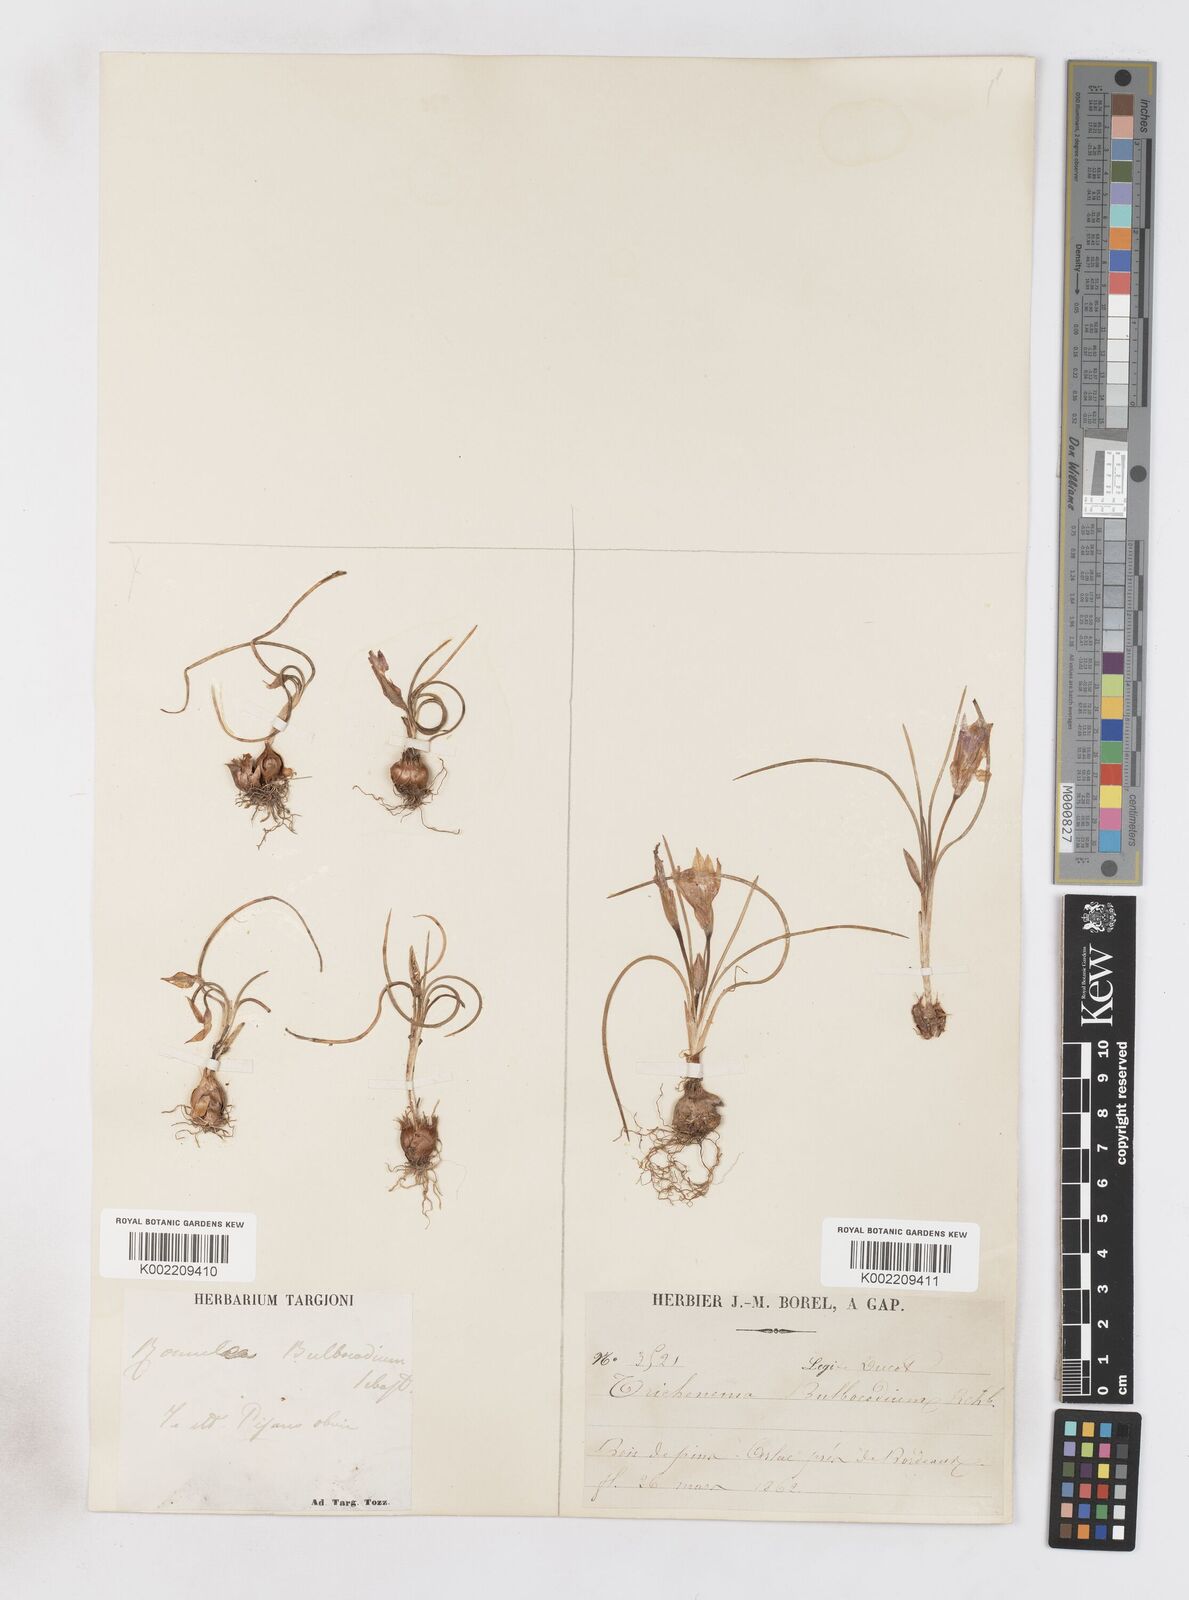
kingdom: Plantae
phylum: Tracheophyta
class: Liliopsida
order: Asparagales
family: Iridaceae
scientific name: Iridaceae
